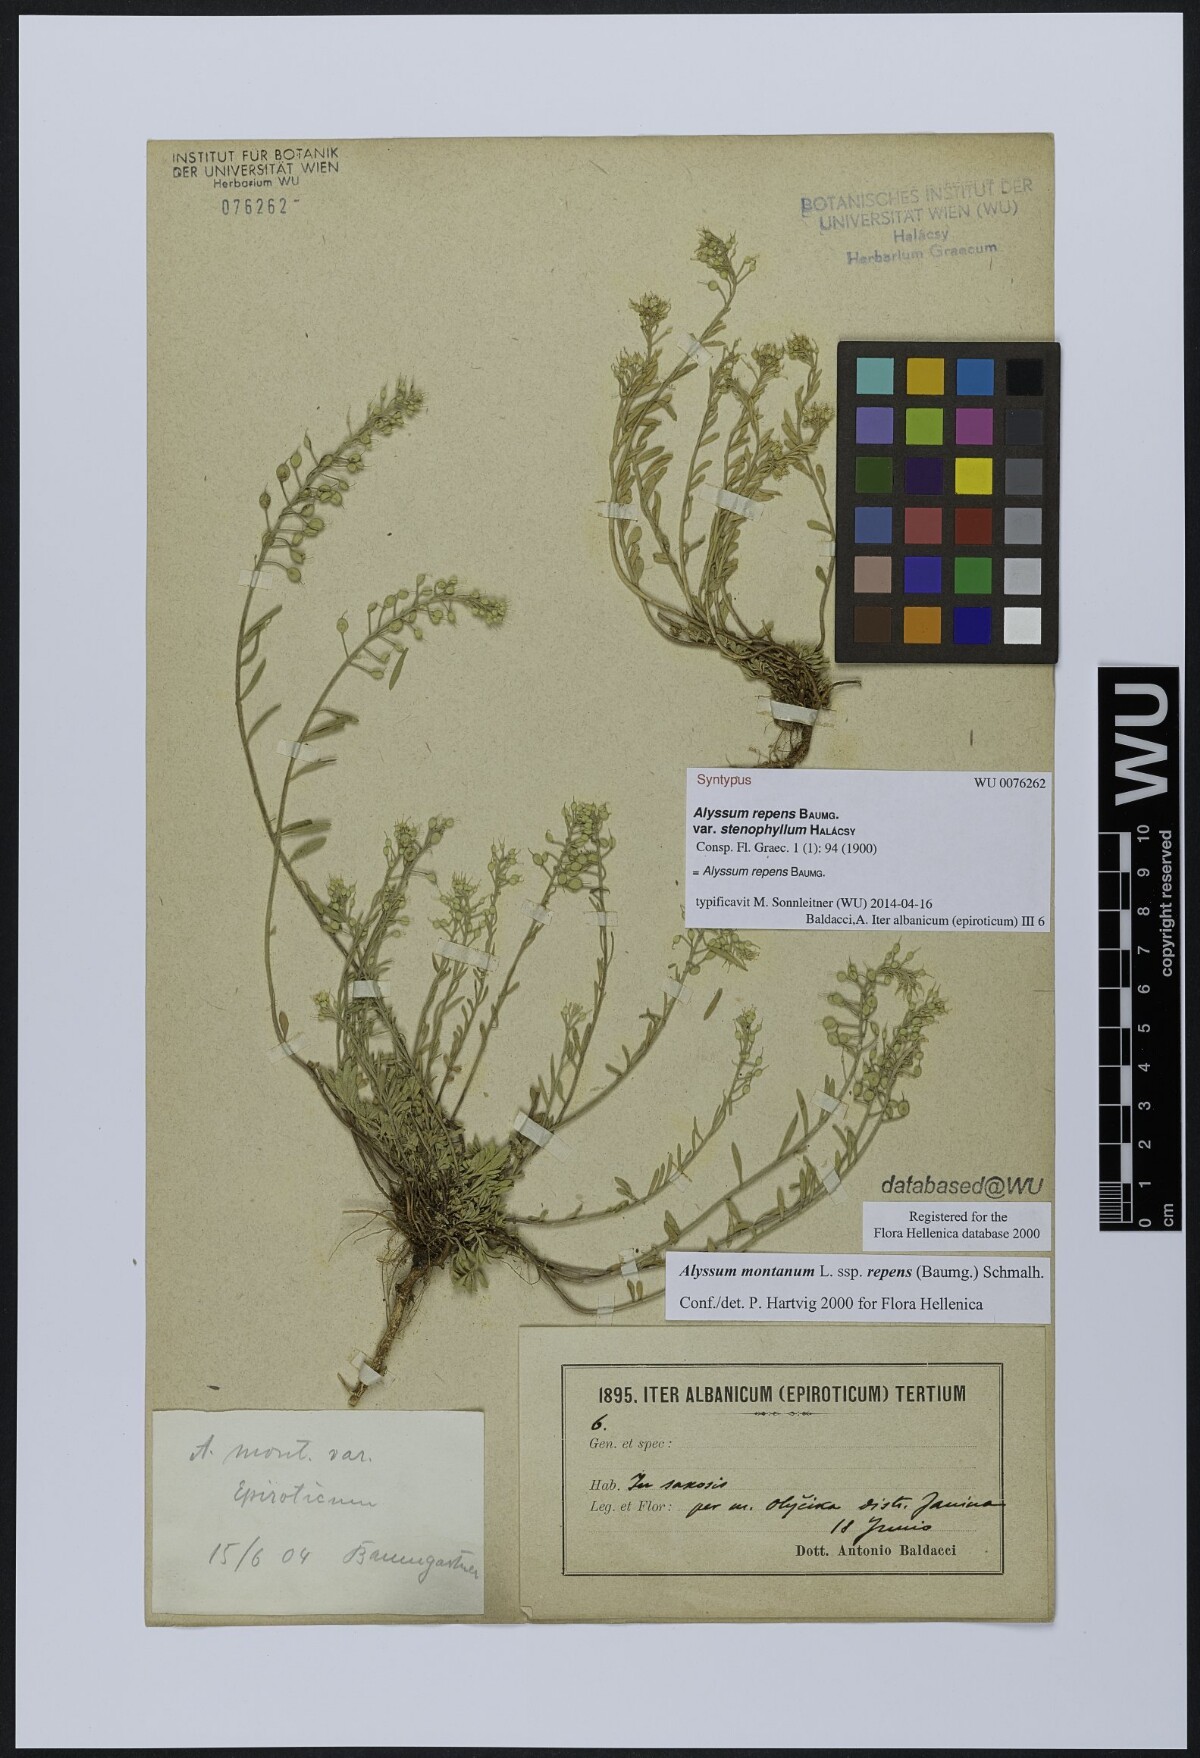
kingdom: Plantae
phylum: Tracheophyta
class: Magnoliopsida
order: Brassicales
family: Brassicaceae
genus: Alyssum
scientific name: Alyssum trichostachyum
